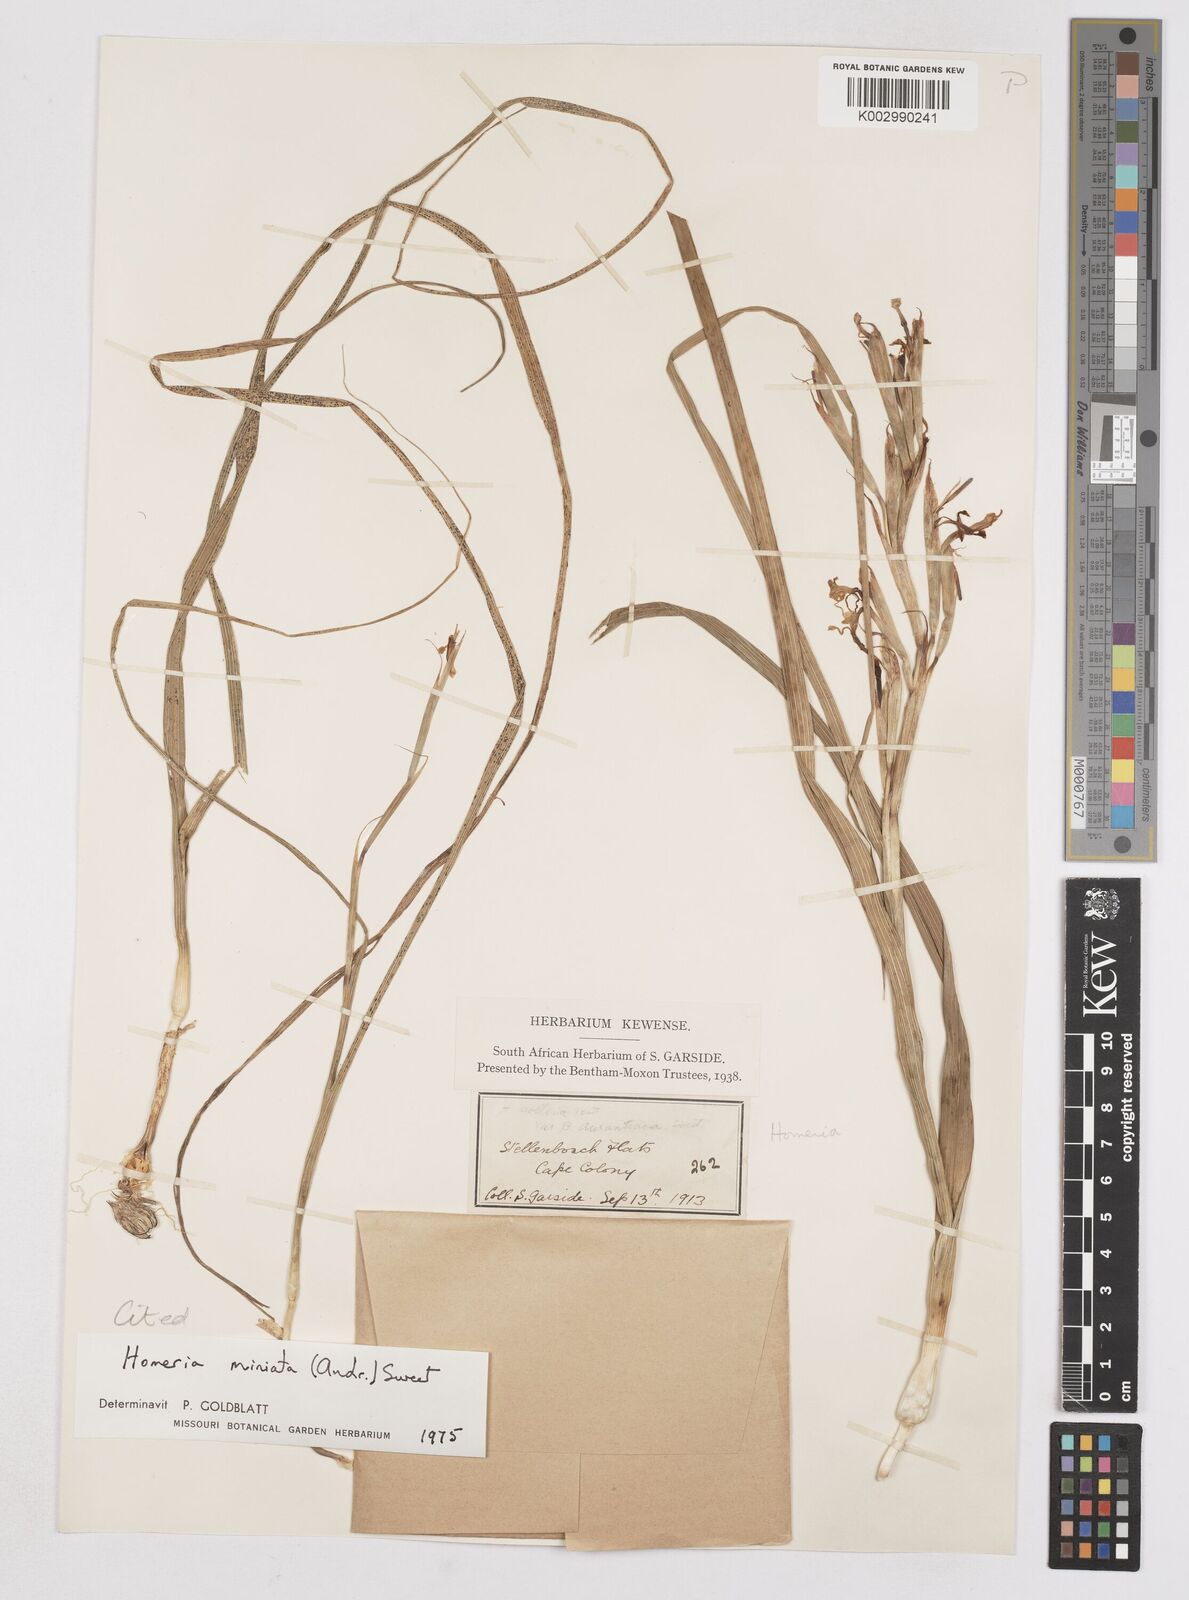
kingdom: Plantae
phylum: Tracheophyta
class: Liliopsida
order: Asparagales
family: Iridaceae
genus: Moraea
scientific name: Moraea miniata
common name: Two-leaf cape-tulip
